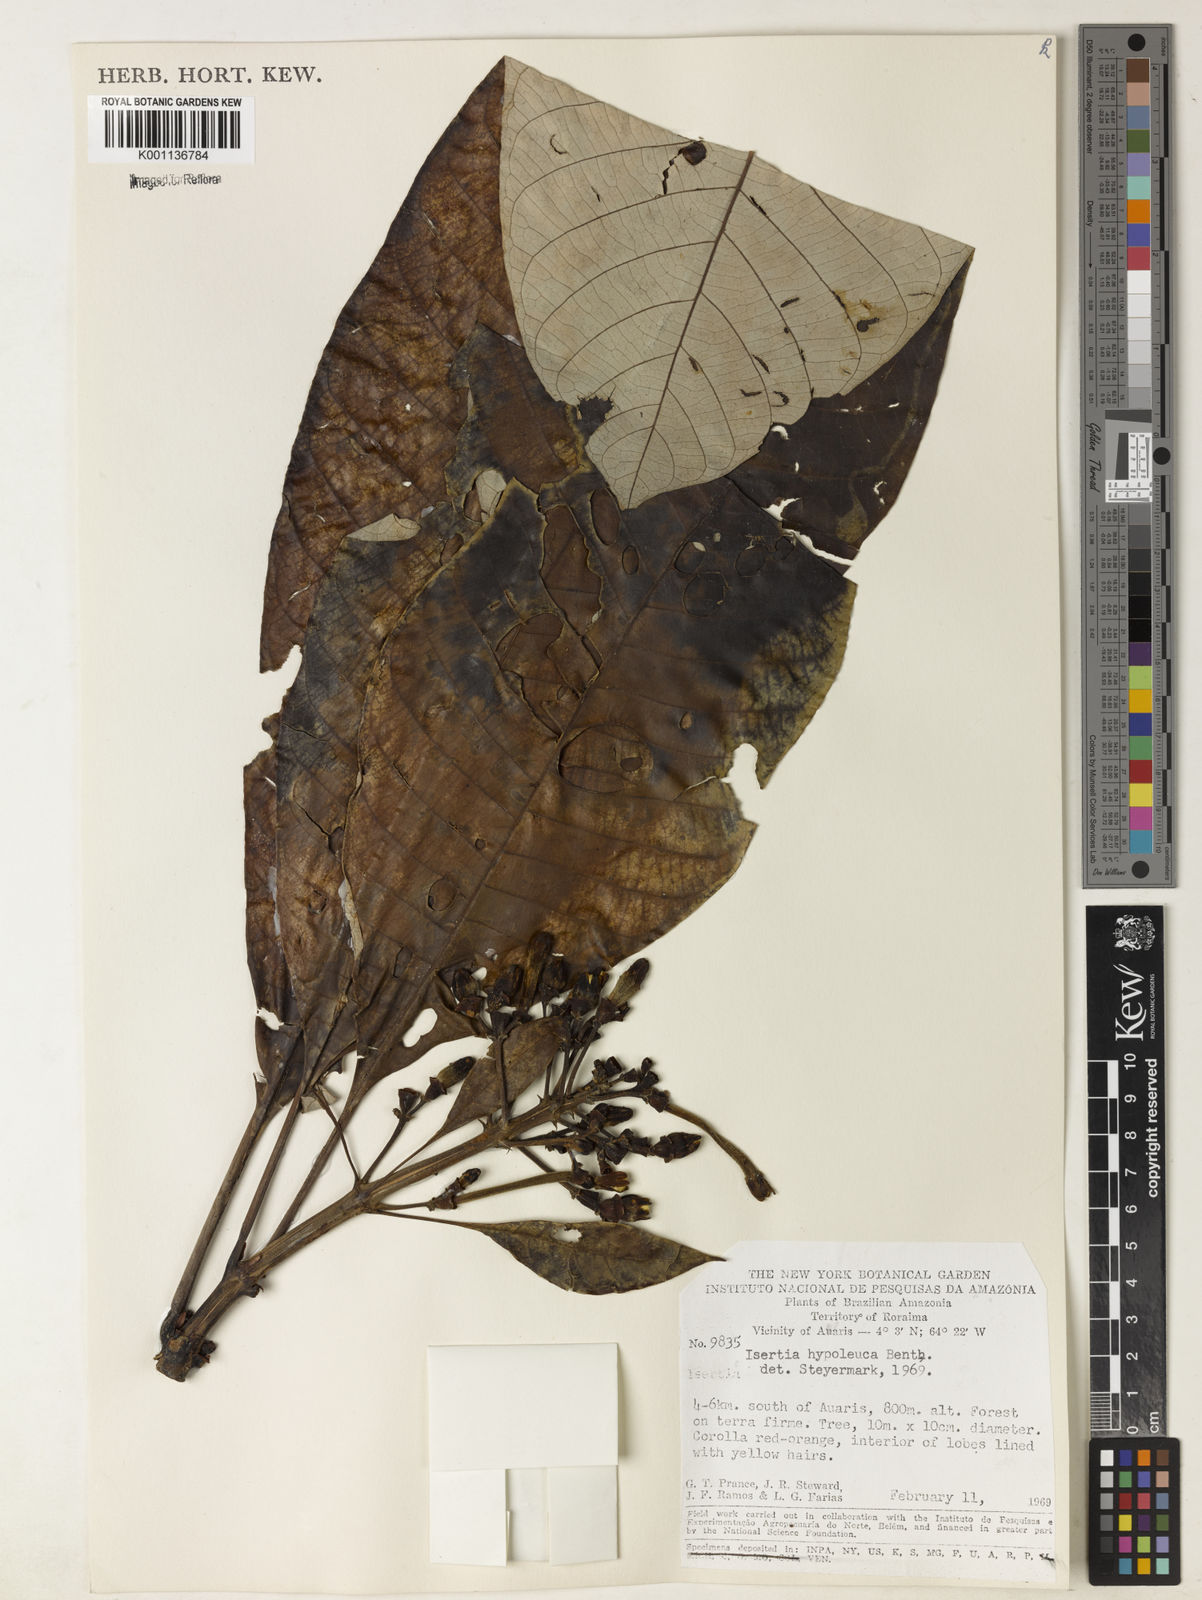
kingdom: Plantae
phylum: Tracheophyta
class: Magnoliopsida
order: Gentianales
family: Rubiaceae
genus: Isertia
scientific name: Isertia hypoleuca
